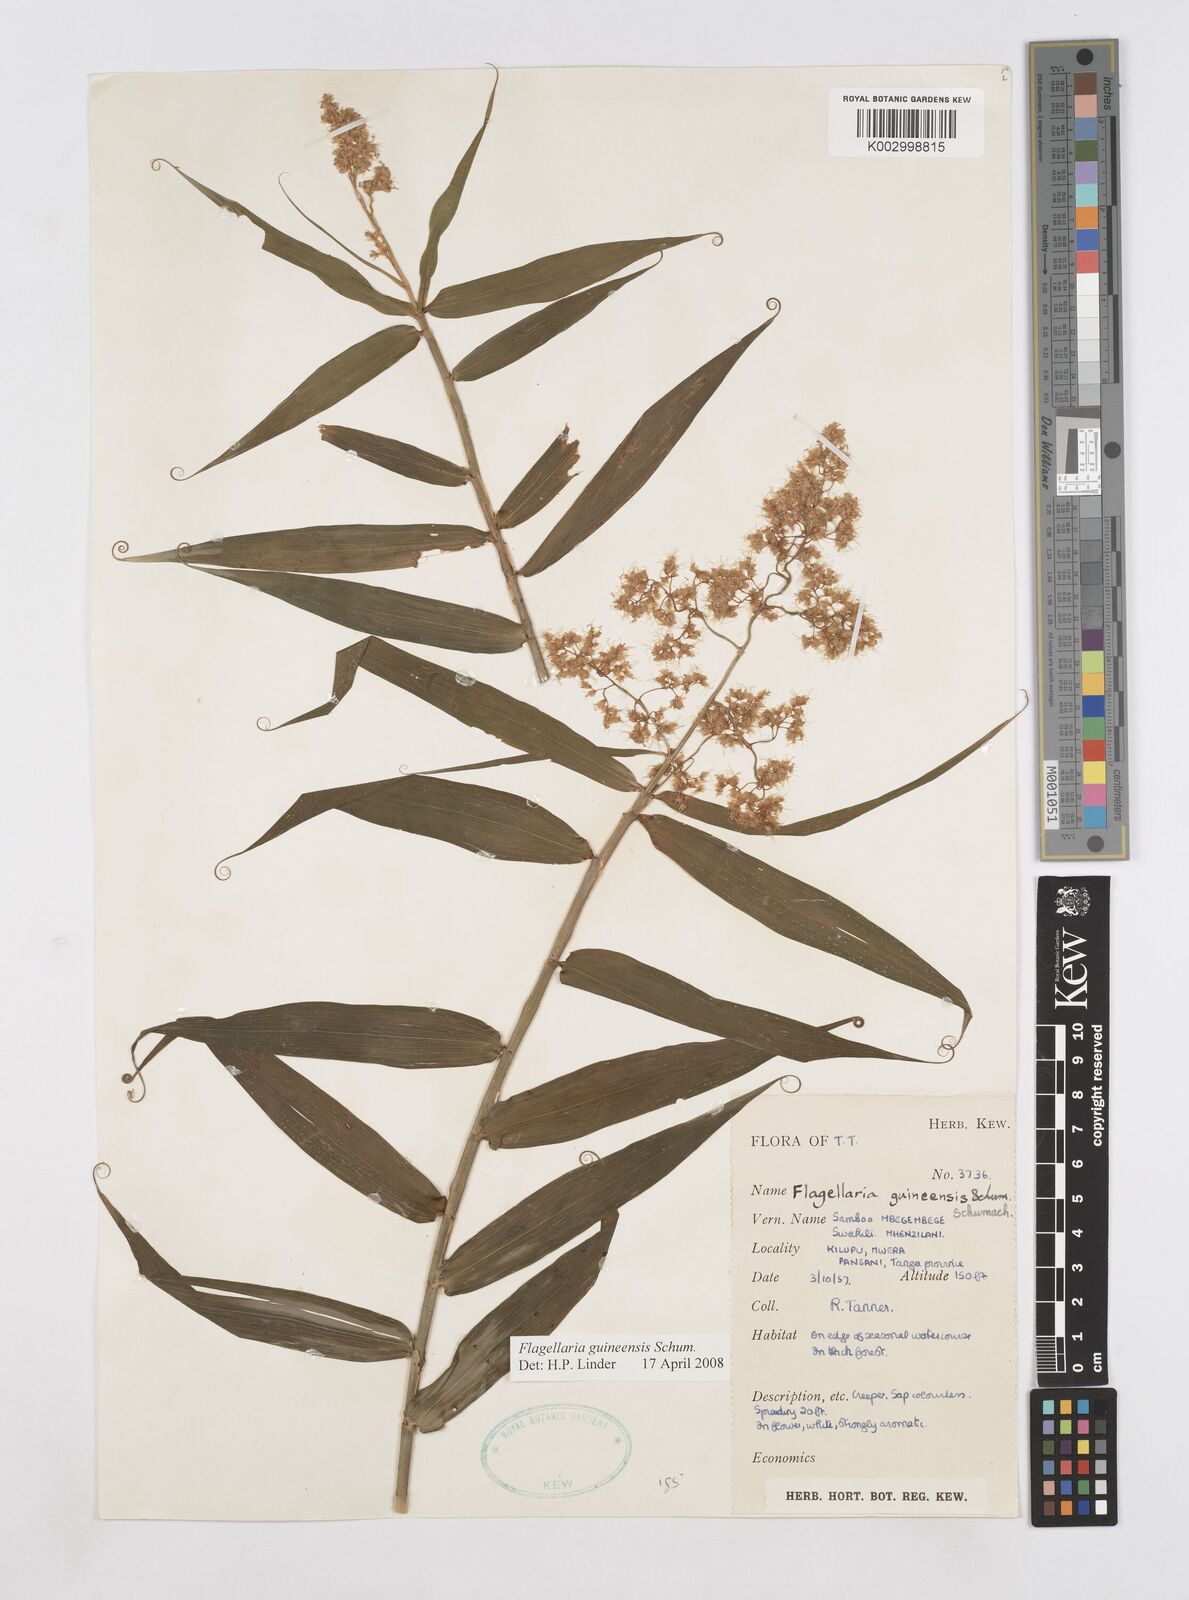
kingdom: Plantae
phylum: Tracheophyta
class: Liliopsida
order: Poales
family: Flagellariaceae
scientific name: Flagellariaceae
